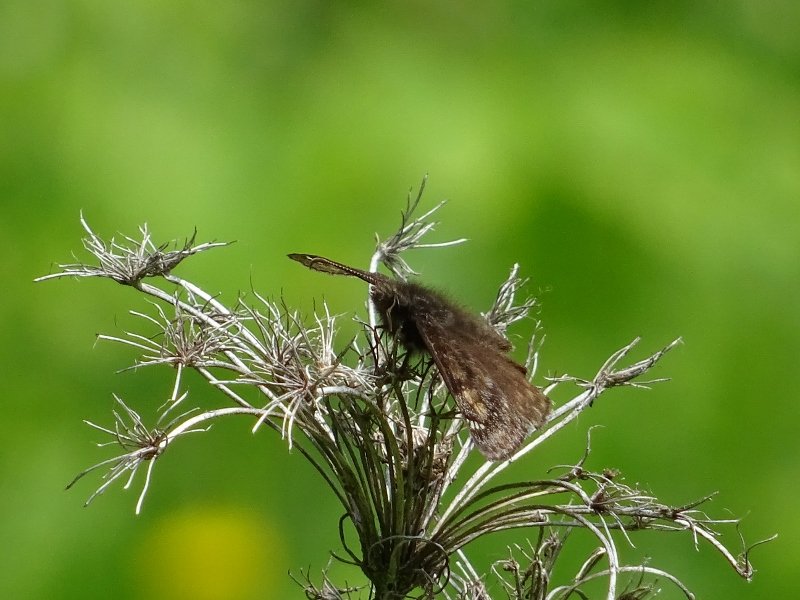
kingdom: Animalia
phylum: Arthropoda
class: Insecta
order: Lepidoptera
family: Hesperiidae
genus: Erynnis
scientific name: Erynnis
